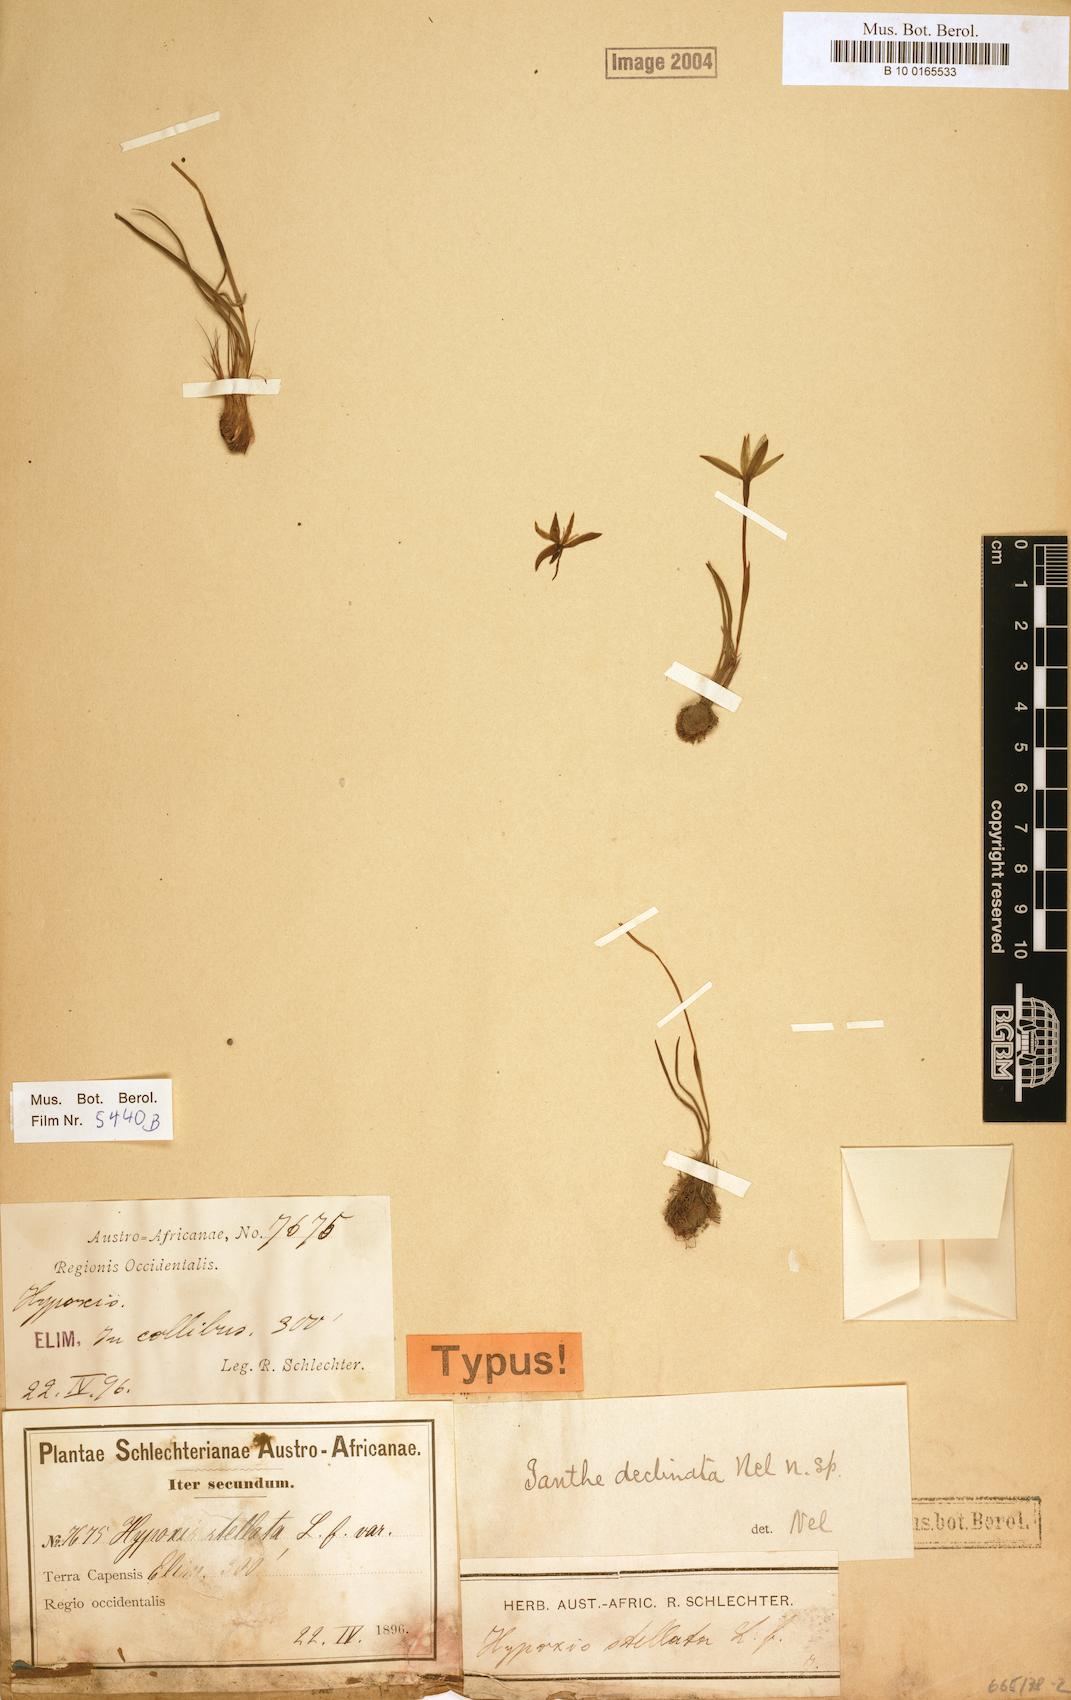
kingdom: Plantae
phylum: Tracheophyta
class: Liliopsida
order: Asparagales
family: Hypoxidaceae
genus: Pauridia
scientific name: Pauridia curculigoides
